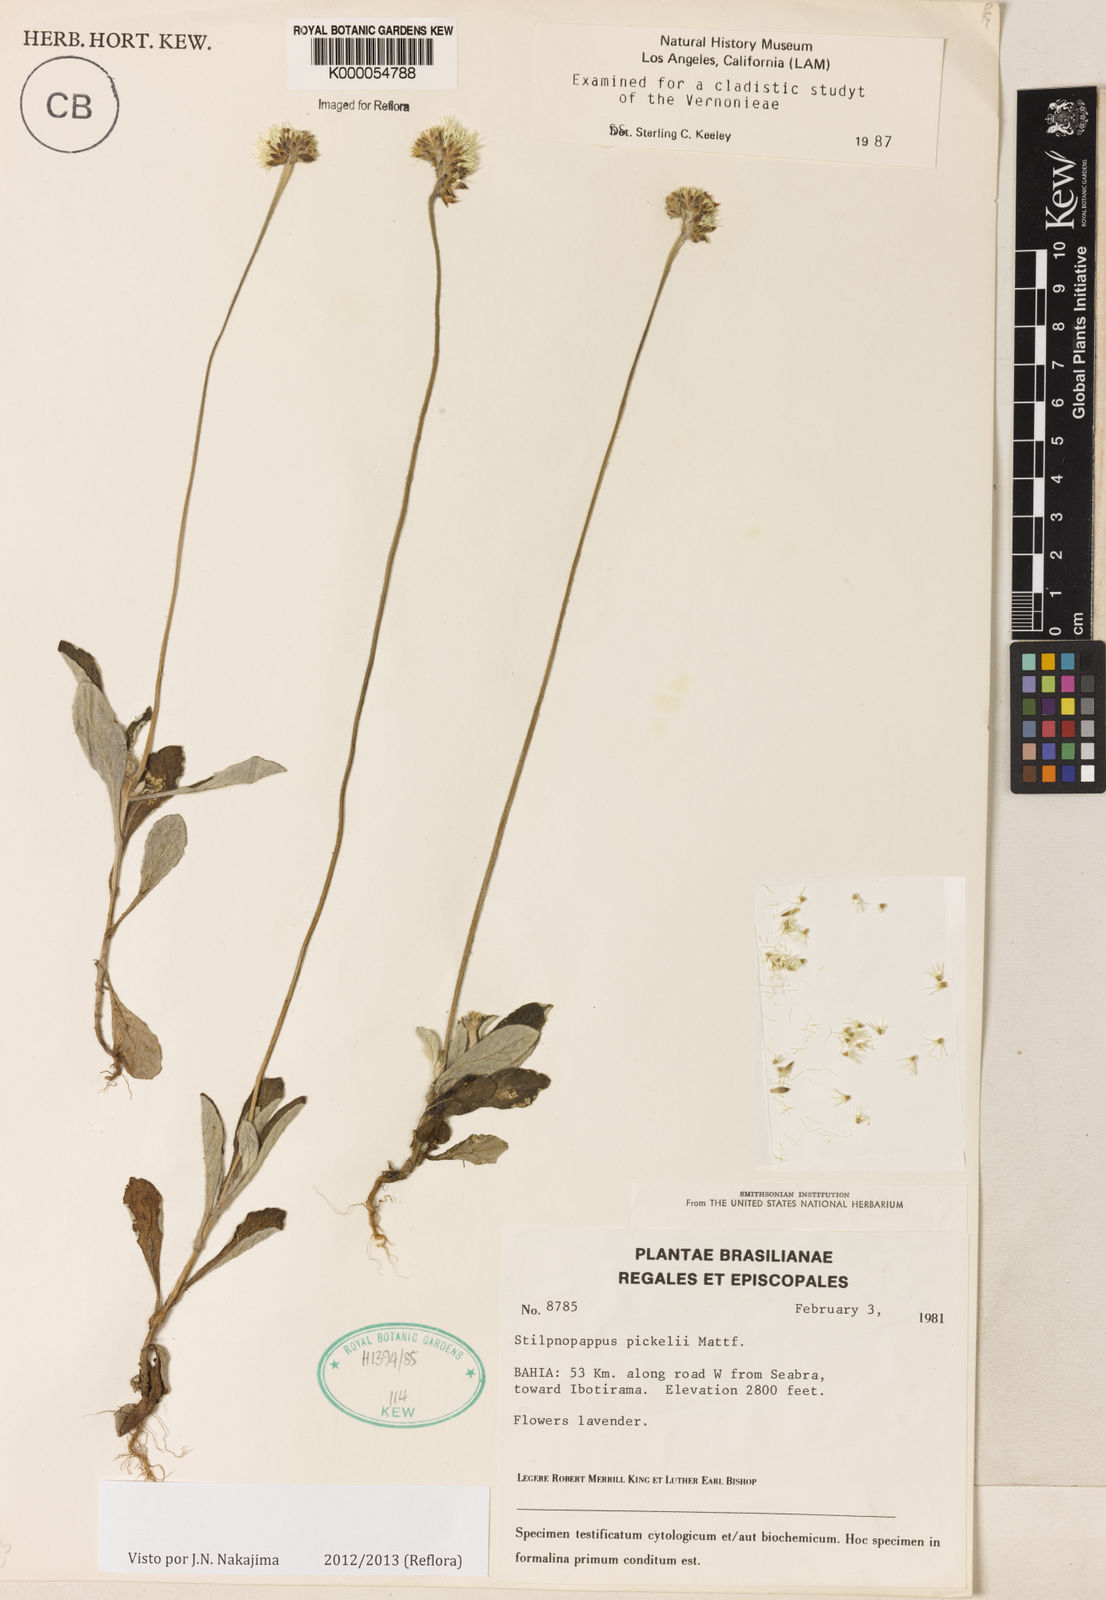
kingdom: Plantae
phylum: Tracheophyta
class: Magnoliopsida
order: Asterales
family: Asteraceae
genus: Stilpnopappus
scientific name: Stilpnopappus pratensis
